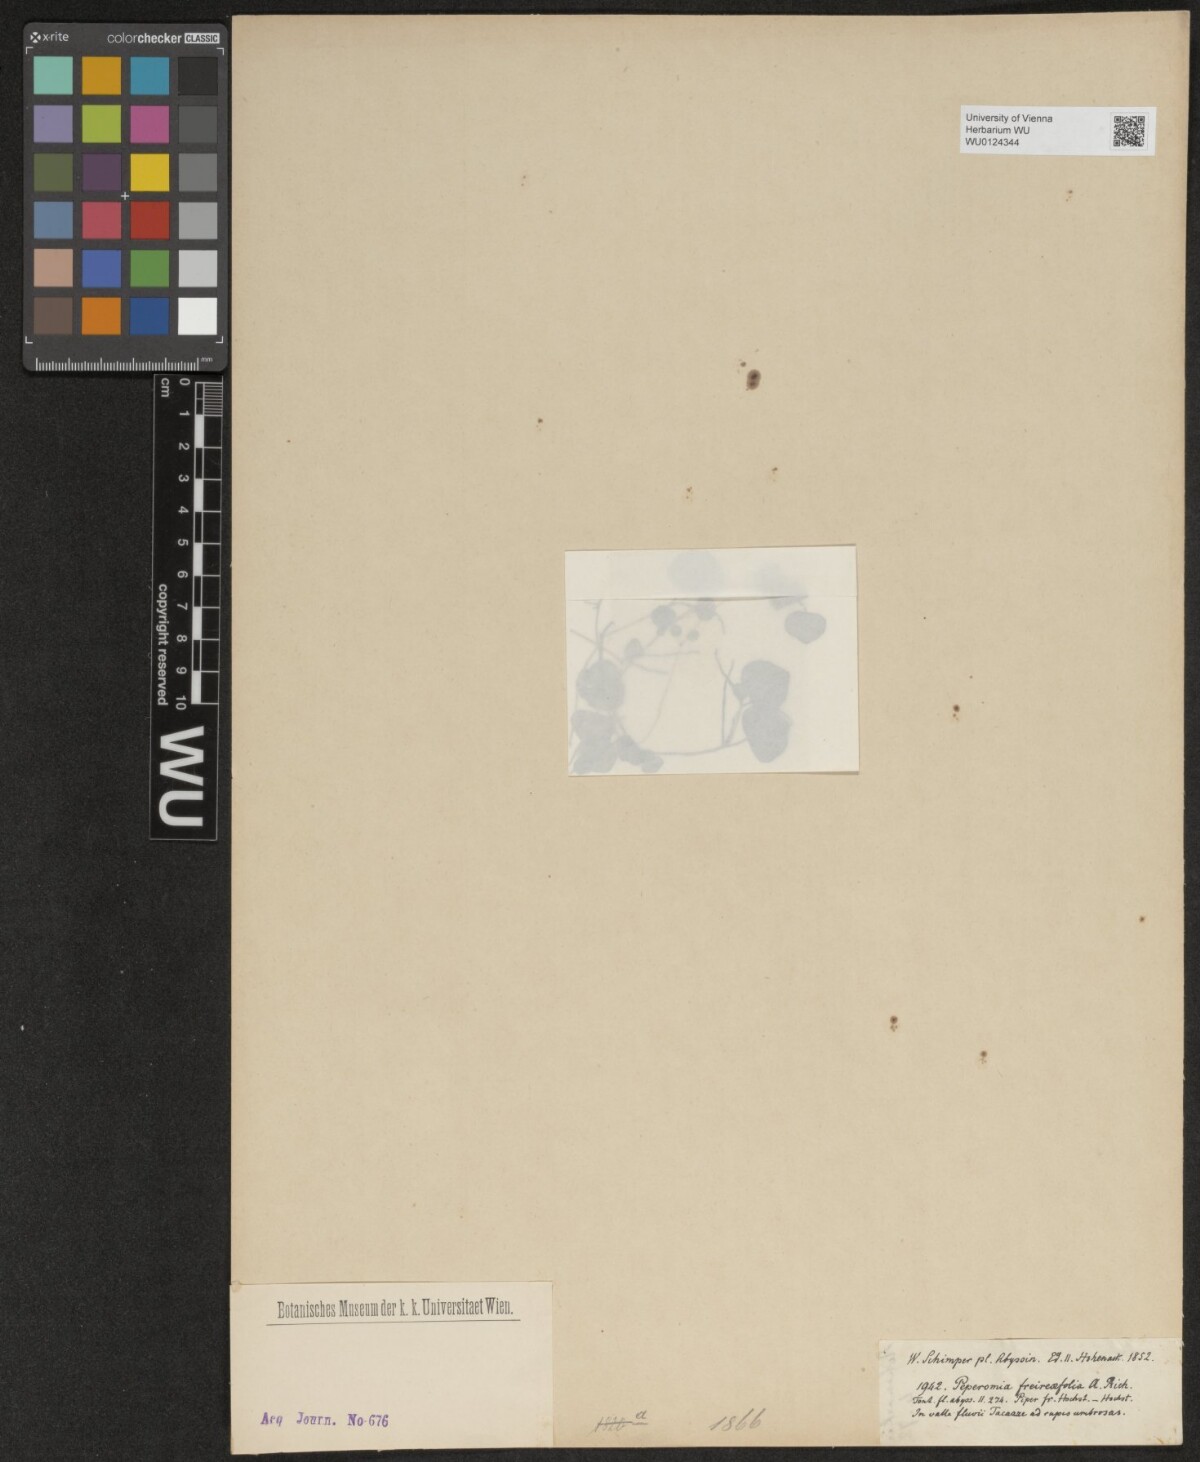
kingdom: Plantae
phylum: Tracheophyta
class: Magnoliopsida
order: Piperales
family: Piperaceae
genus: Peperomia
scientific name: Peperomia pellucida
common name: Man to man
